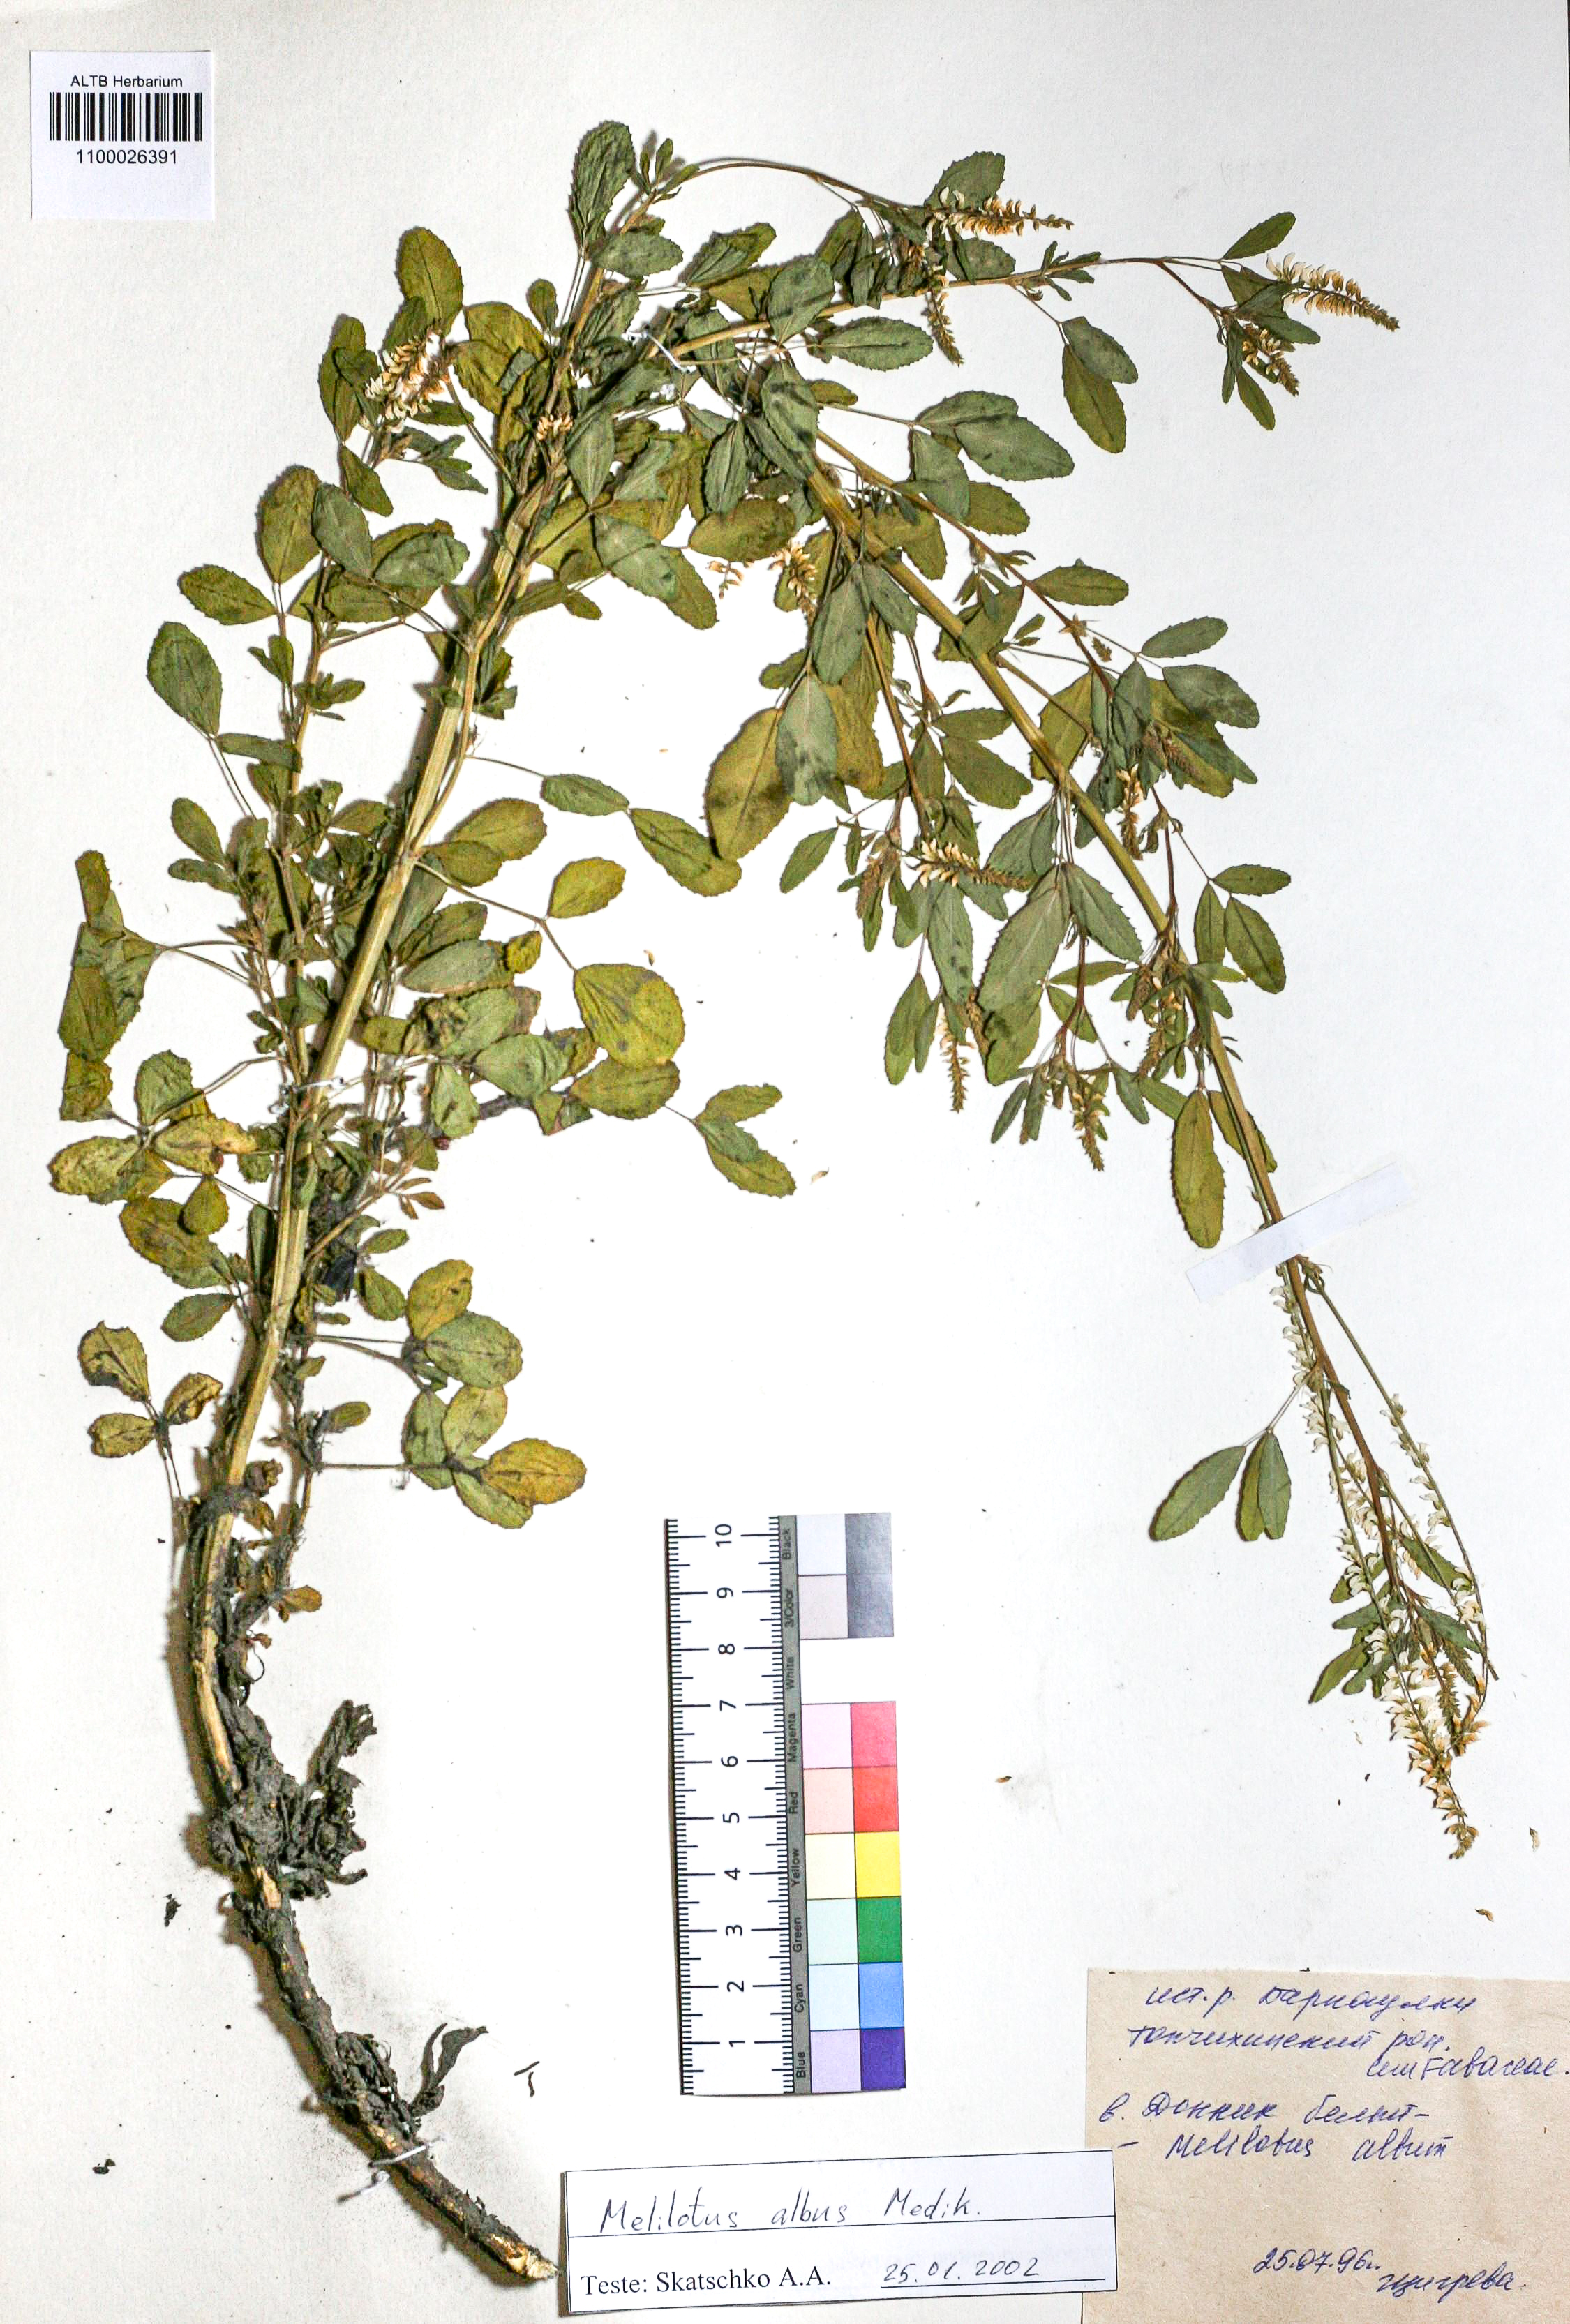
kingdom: Plantae
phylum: Tracheophyta
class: Magnoliopsida
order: Fabales
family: Fabaceae
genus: Melilotus
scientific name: Melilotus albus
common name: White melilot
